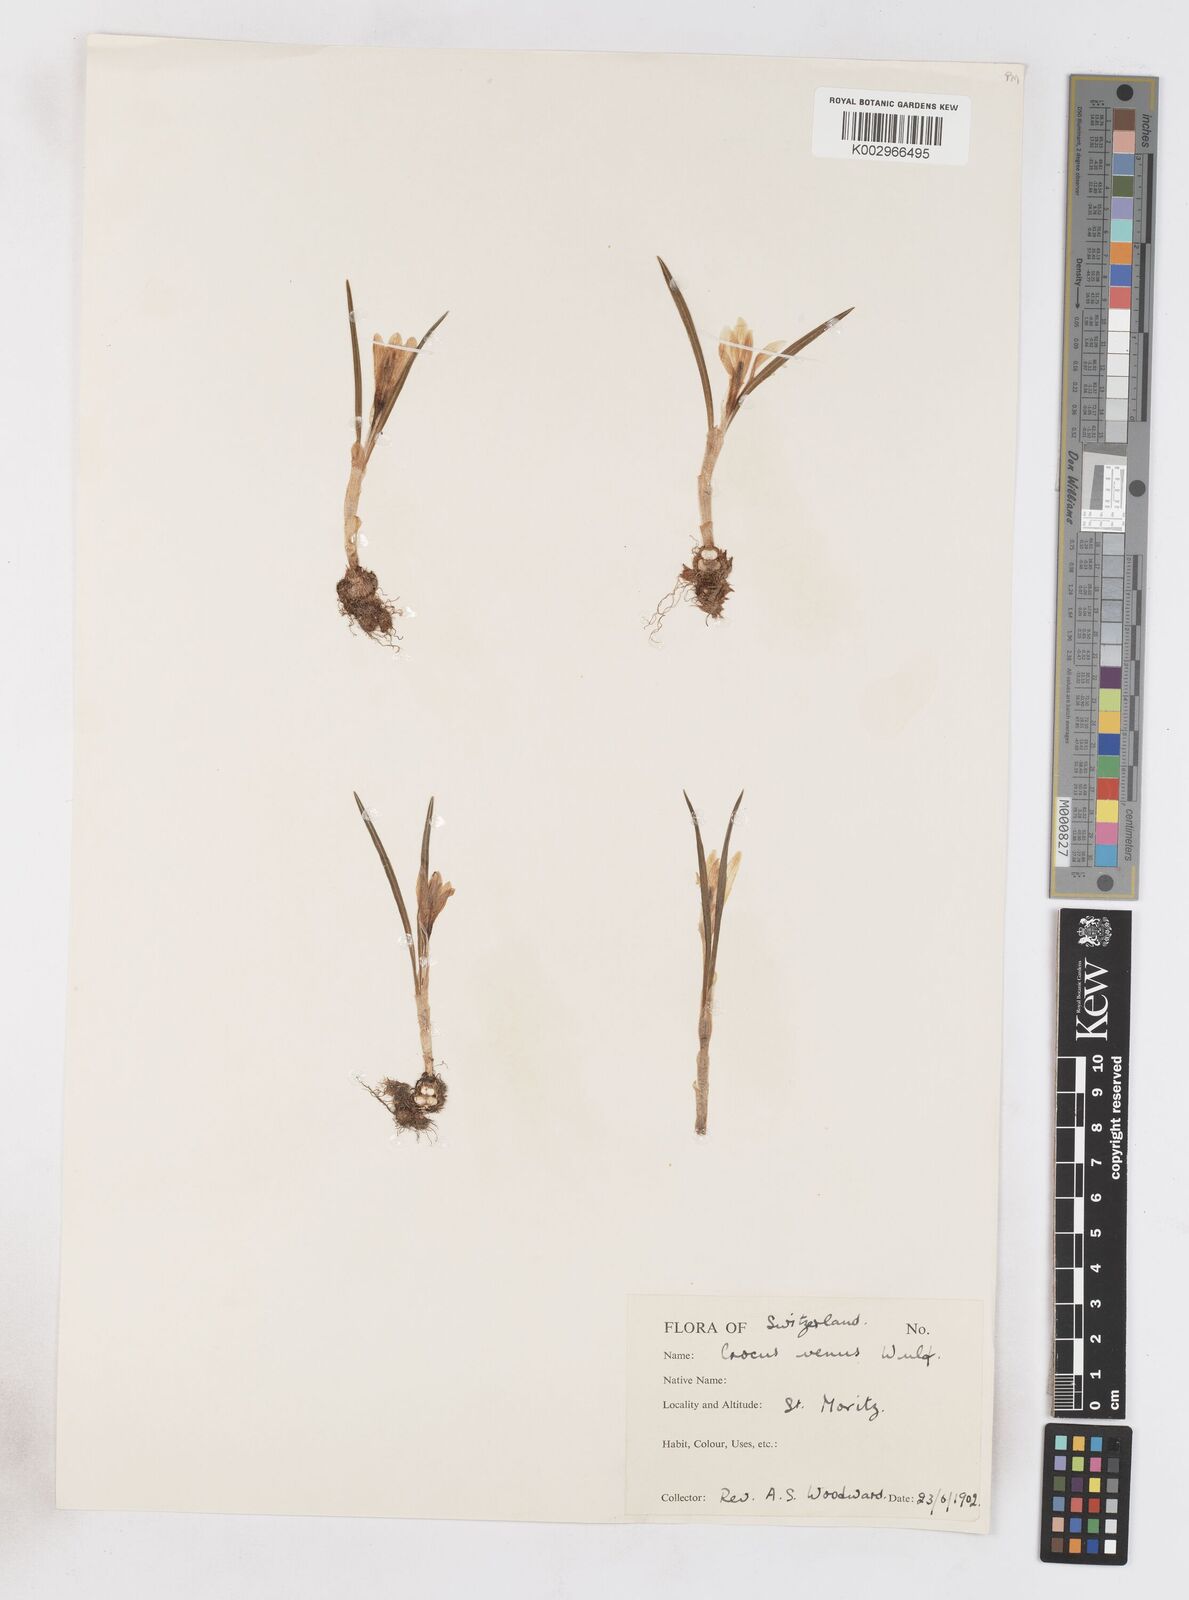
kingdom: Plantae
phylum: Tracheophyta
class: Liliopsida
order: Asparagales
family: Iridaceae
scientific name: Iridaceae
